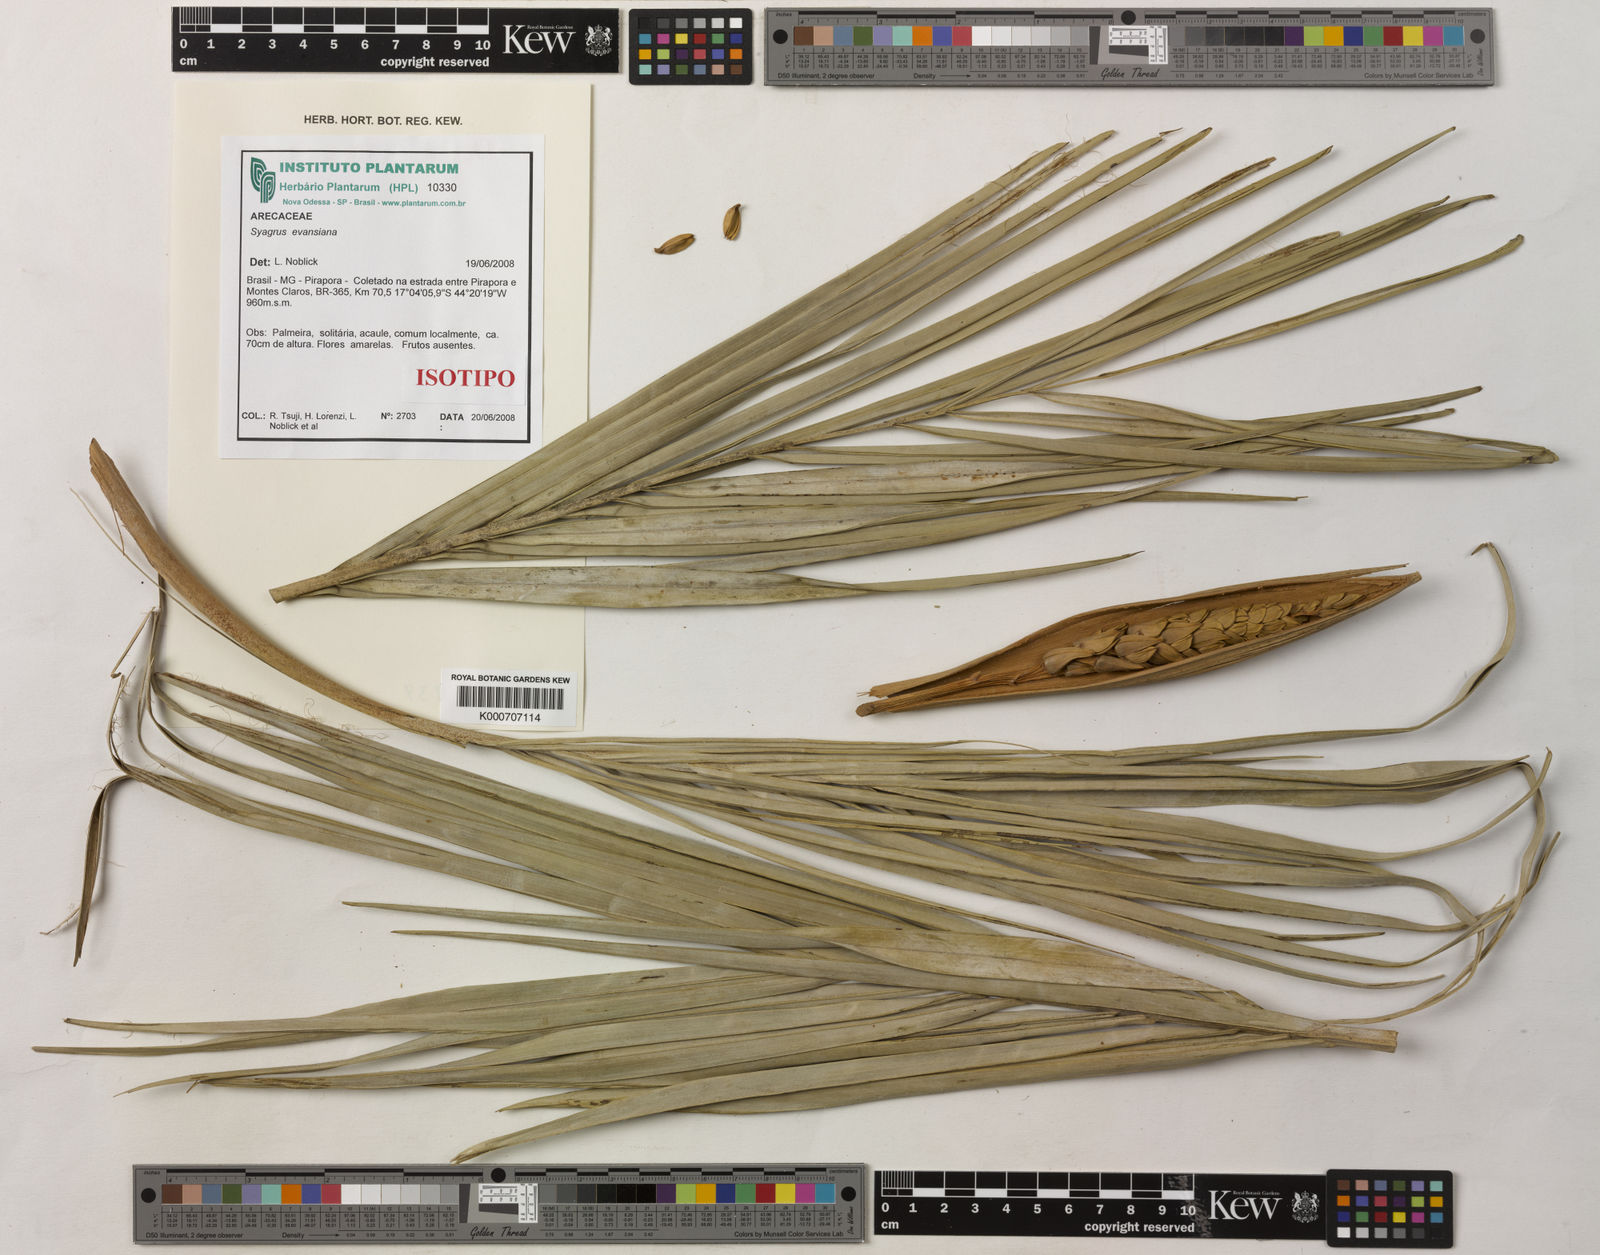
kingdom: Plantae
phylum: Tracheophyta
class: Liliopsida
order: Arecales
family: Arecaceae
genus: Syagrus
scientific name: Syagrus evansiana
